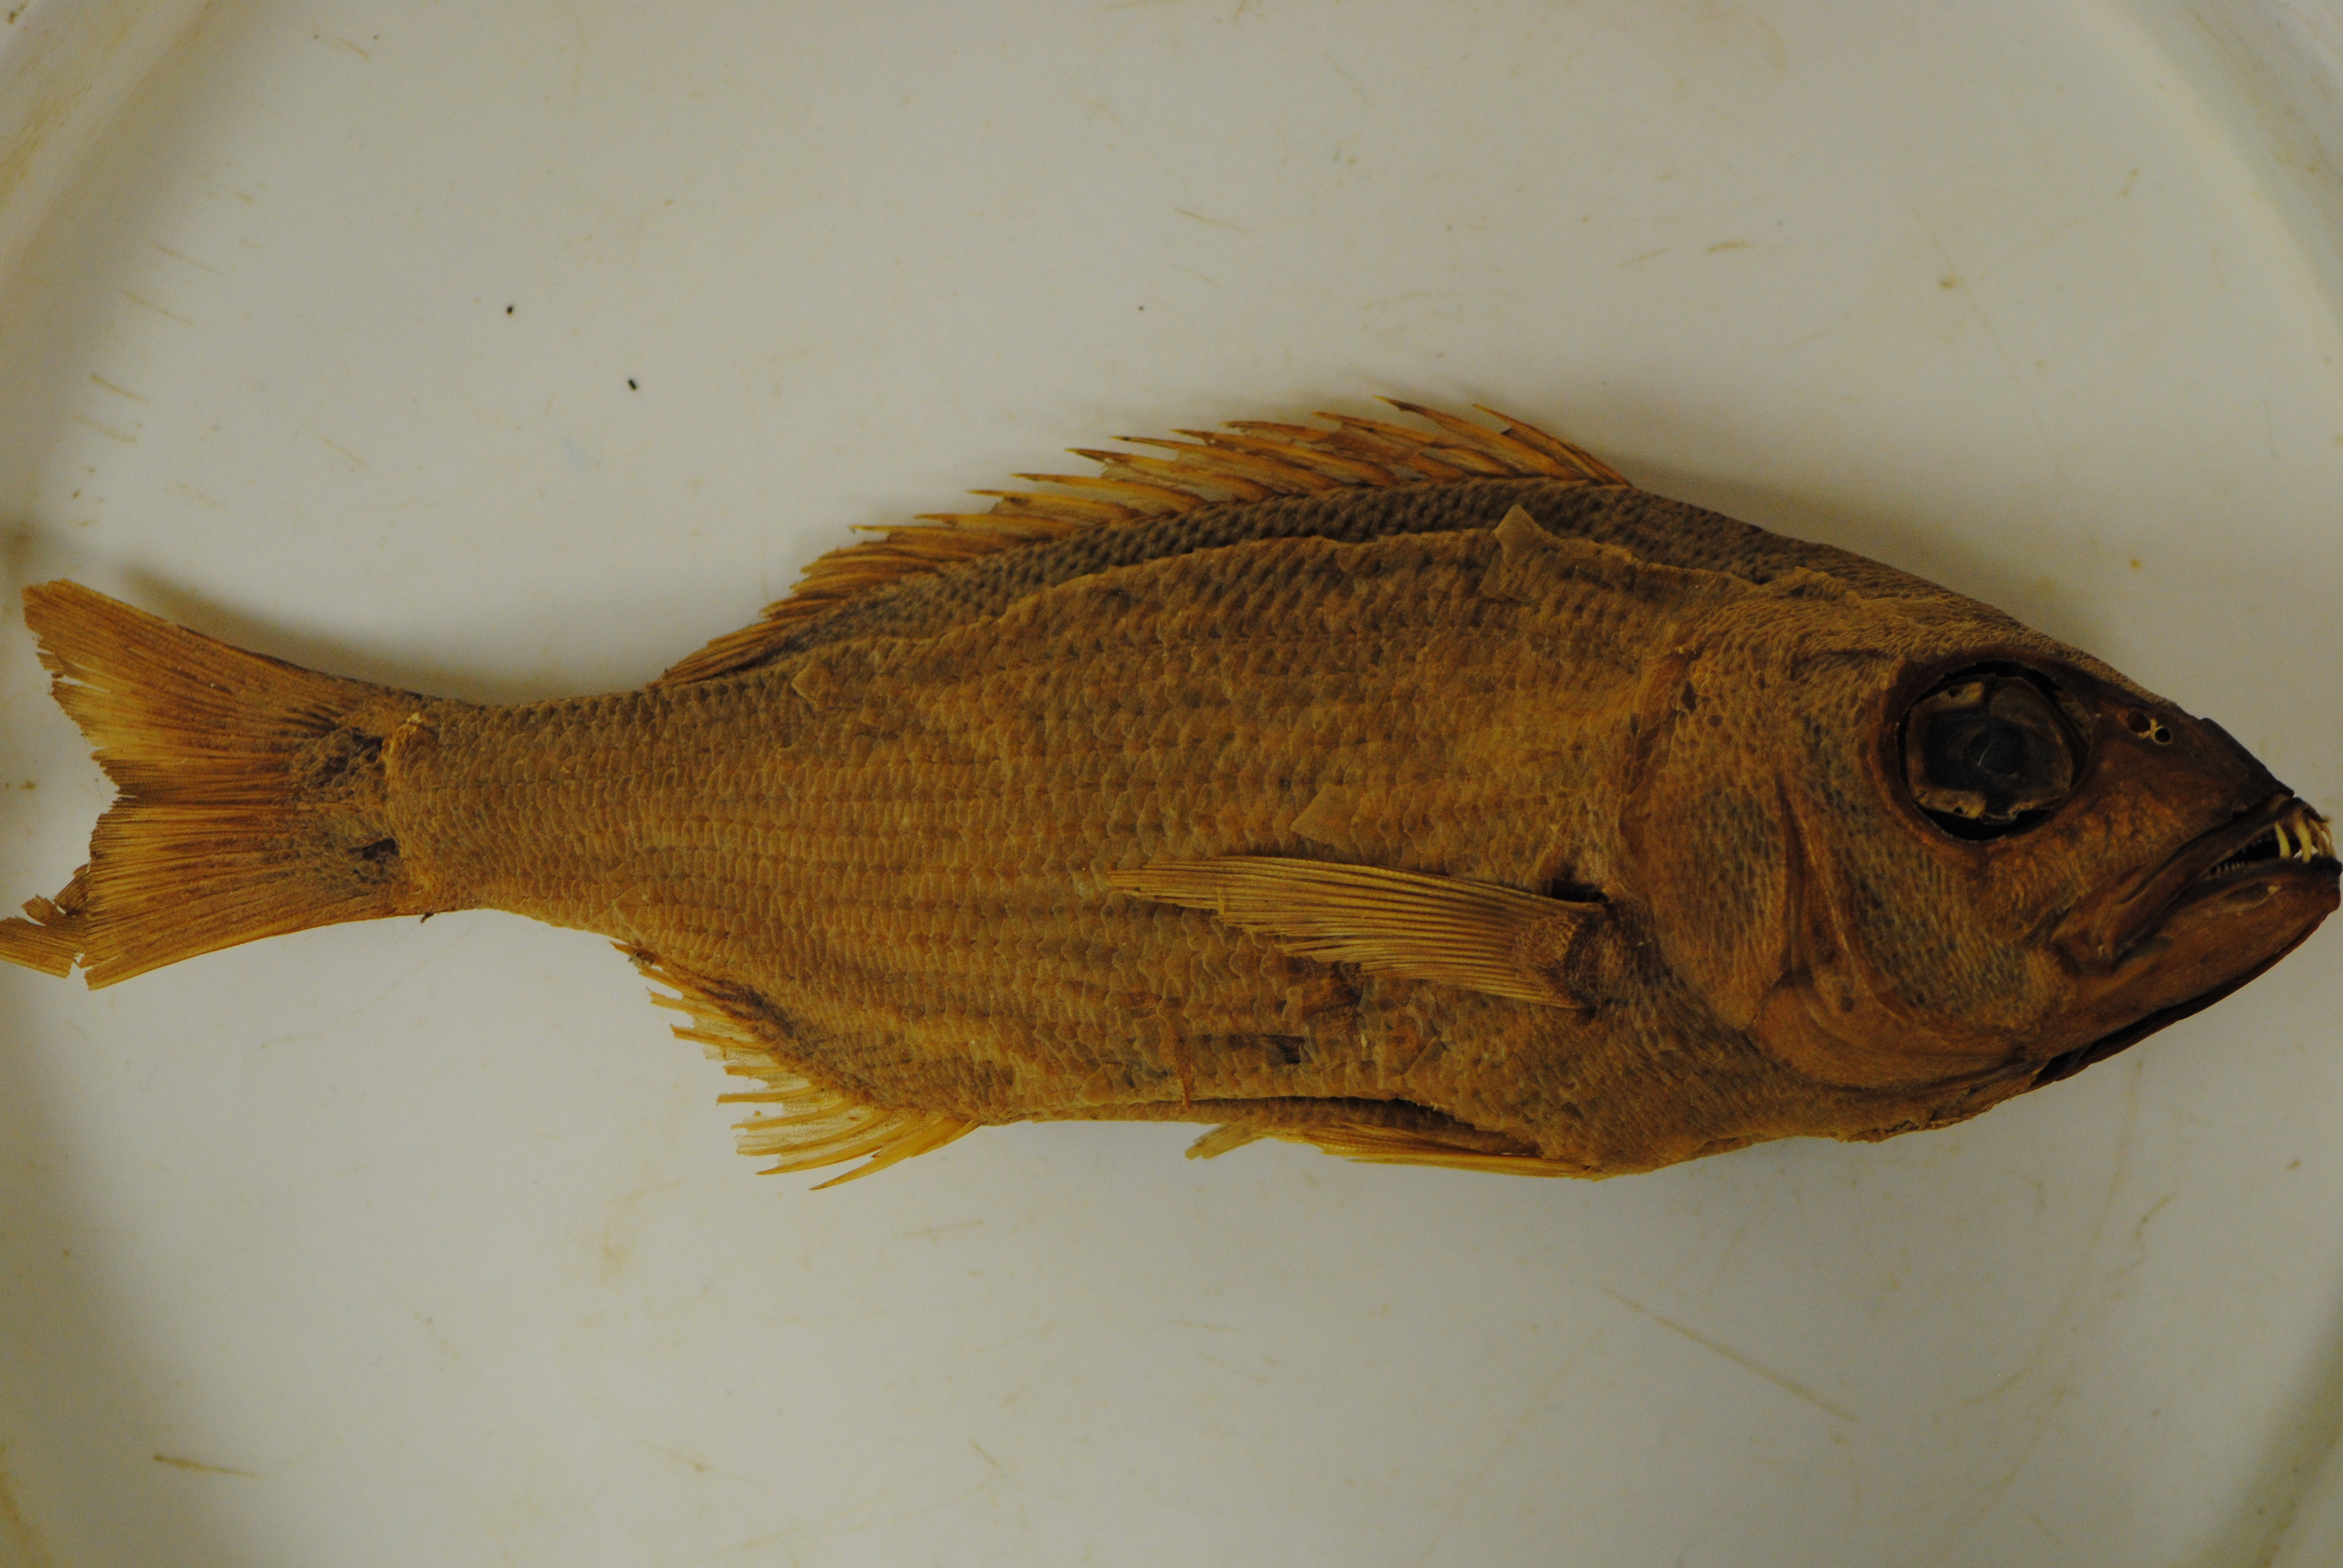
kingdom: Animalia
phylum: Chordata
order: Perciformes
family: Sparidae
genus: Argyrozona
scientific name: Argyrozona argyrozona
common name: Carpenter
